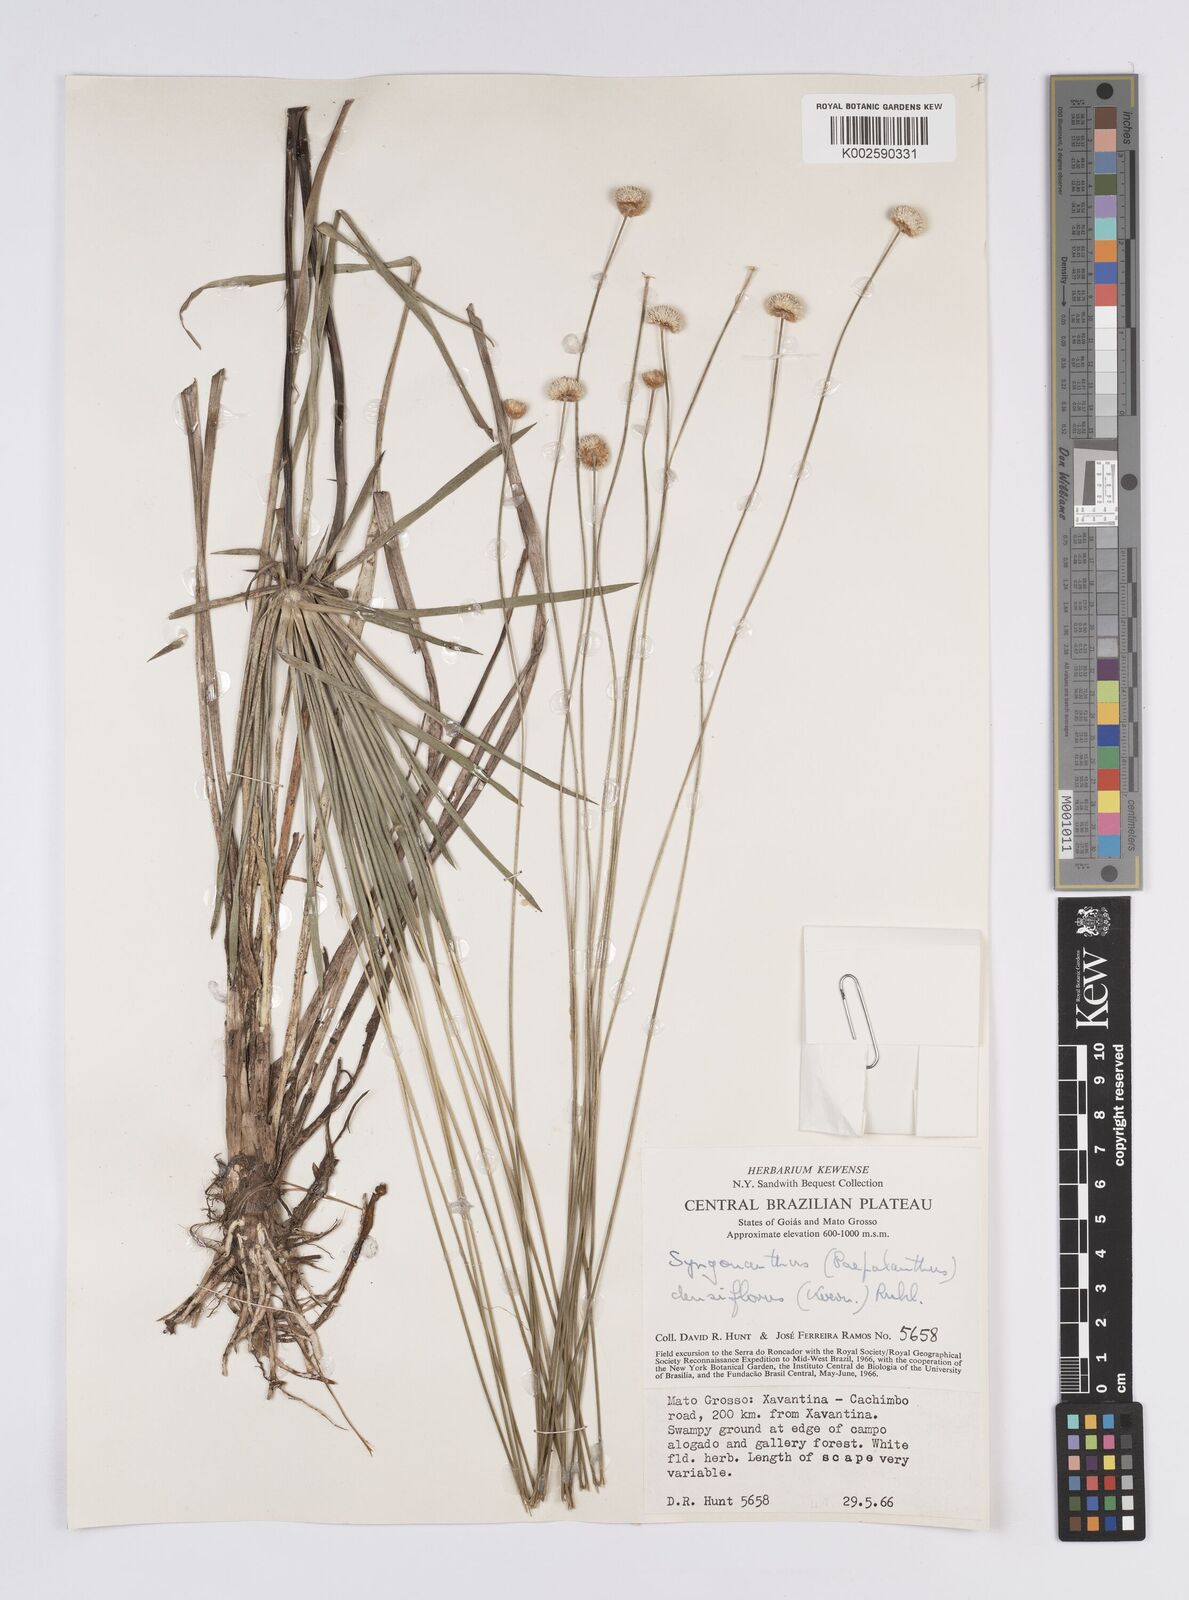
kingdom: Plantae
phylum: Tracheophyta
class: Liliopsida
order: Poales
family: Eriocaulaceae
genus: Syngonanthus
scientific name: Syngonanthus densiflorus
